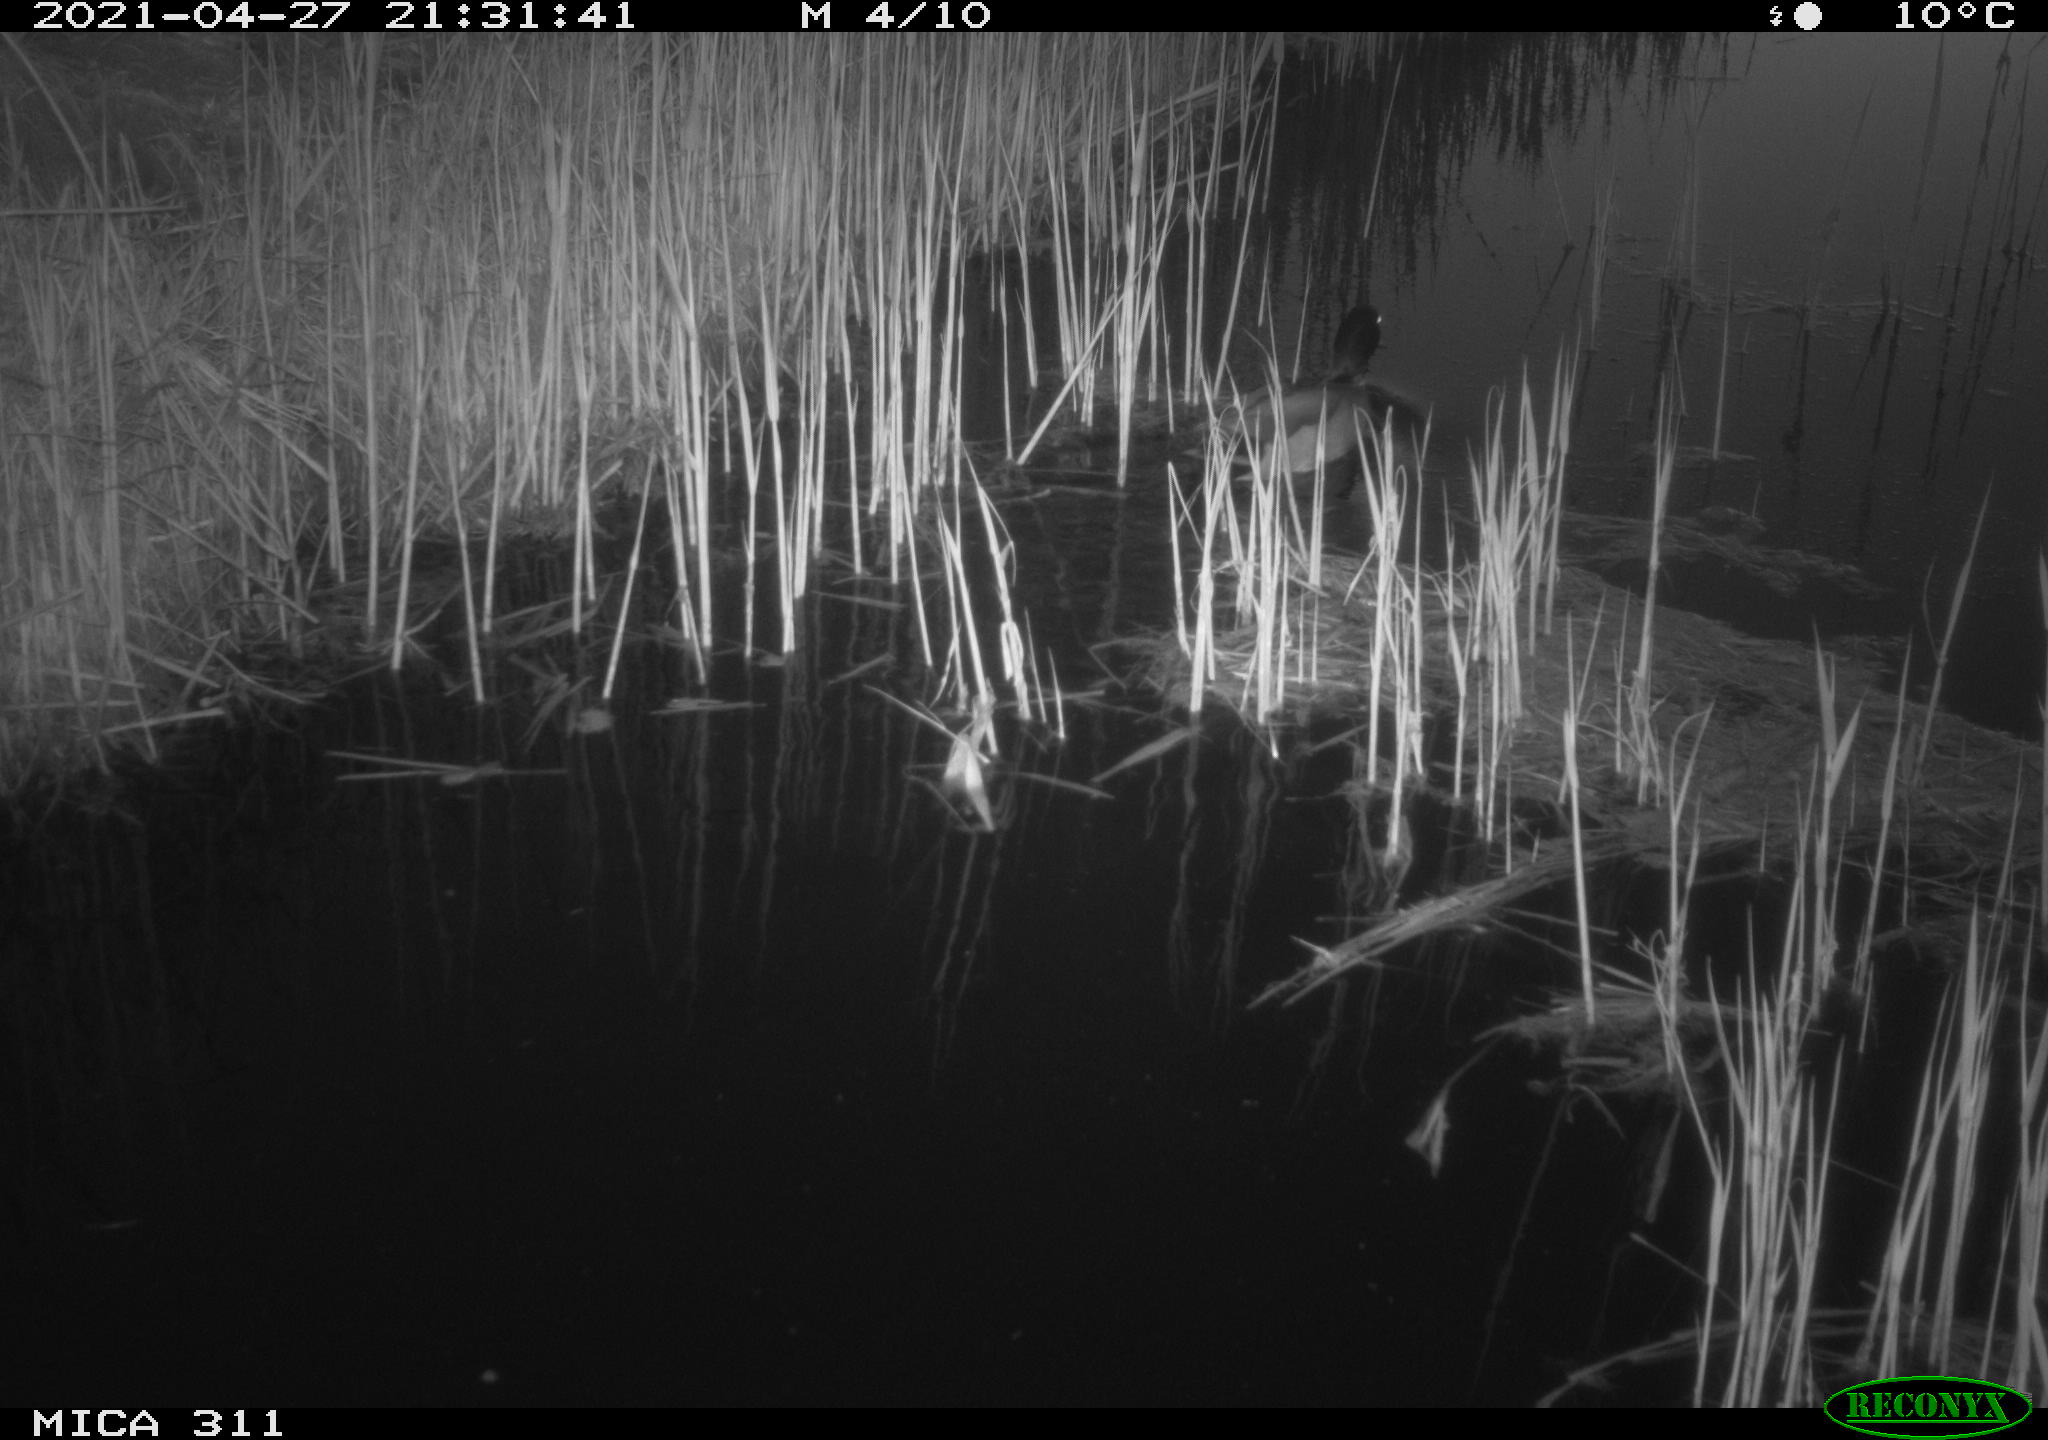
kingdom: Animalia
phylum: Chordata
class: Aves
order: Anseriformes
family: Anatidae
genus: Anas
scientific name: Anas platyrhynchos
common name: Mallard
